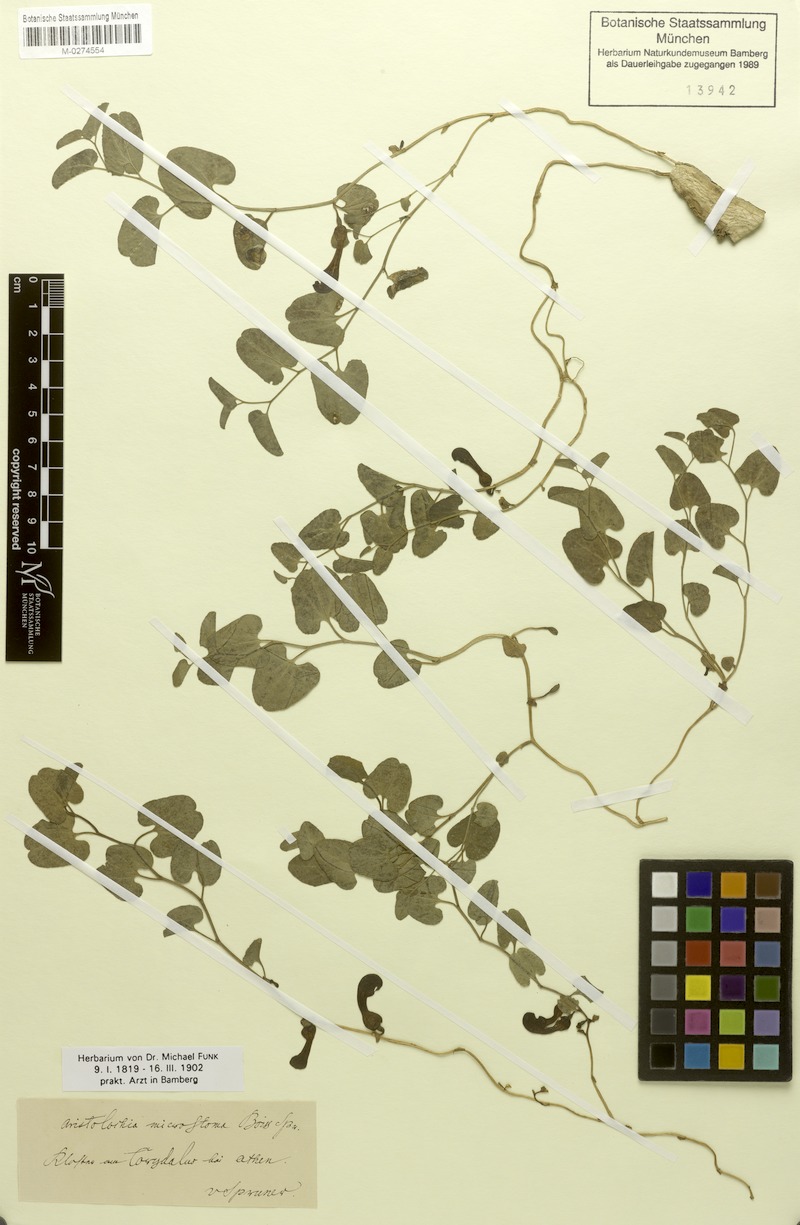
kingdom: Plantae
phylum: Tracheophyta
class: Magnoliopsida
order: Piperales
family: Aristolochiaceae
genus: Aristolochia
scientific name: Aristolochia microstoma
